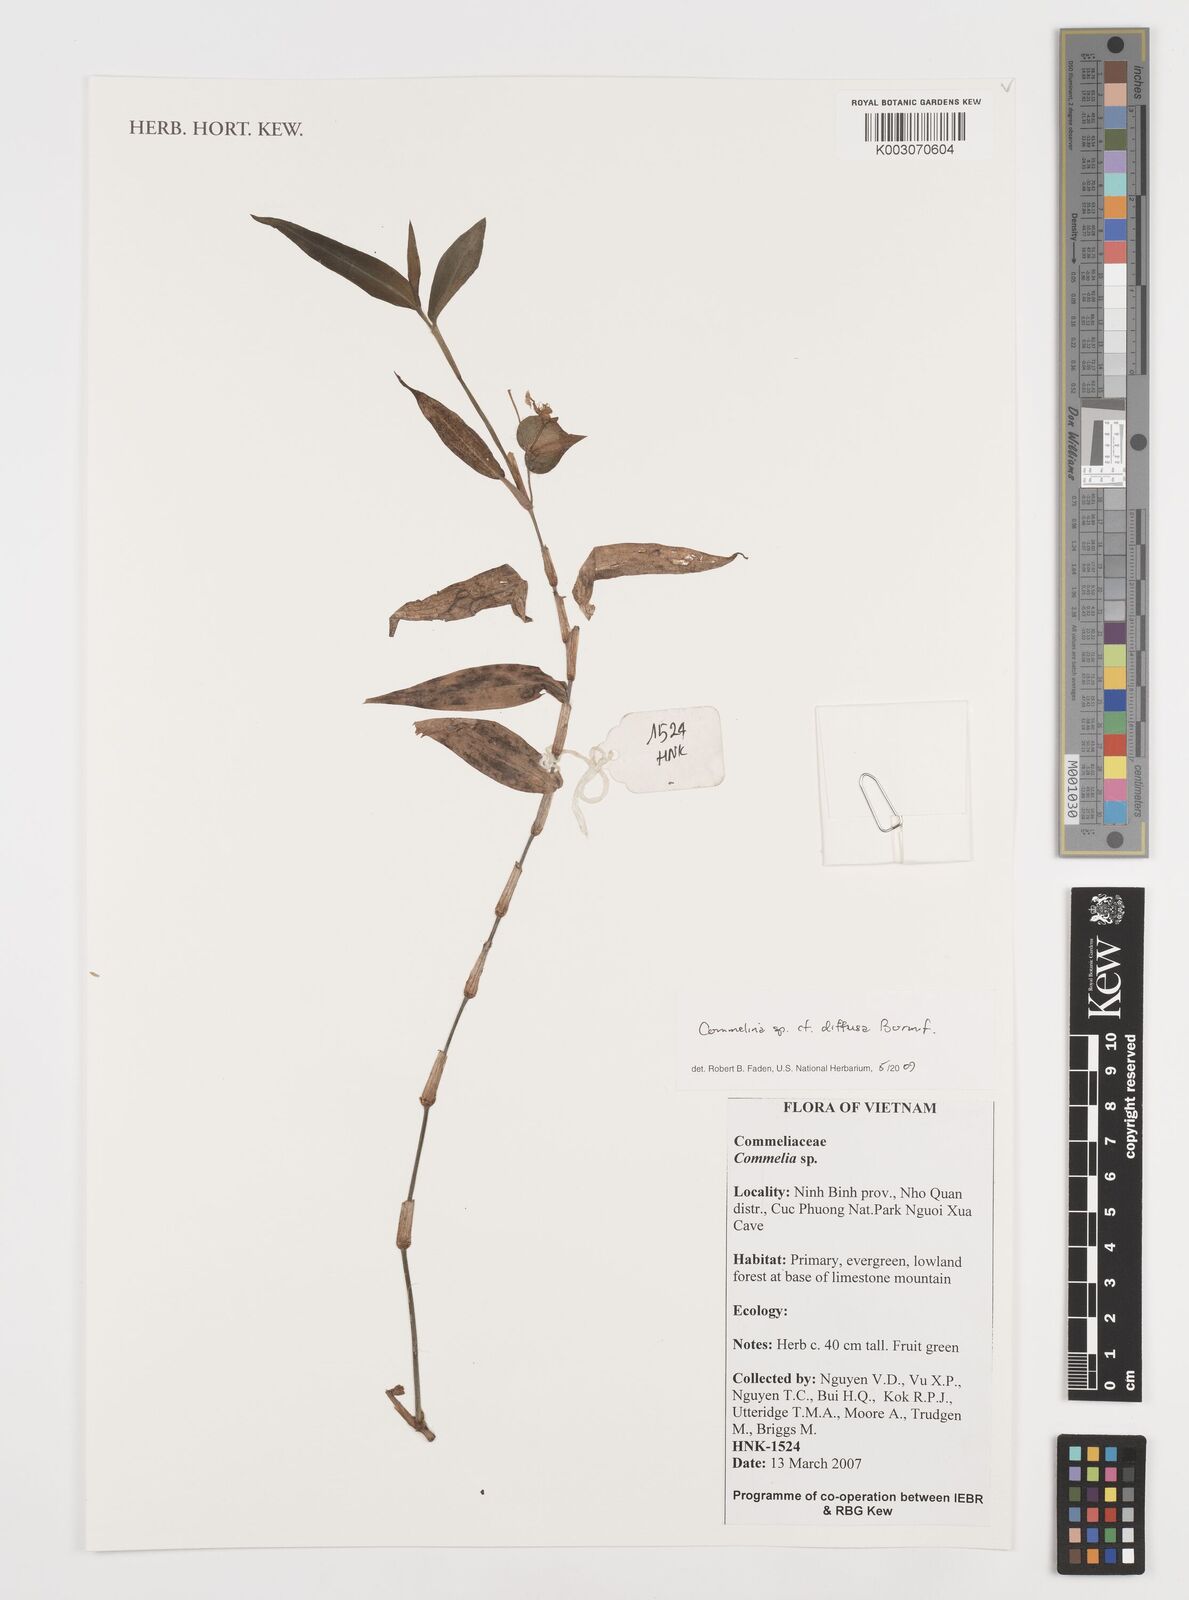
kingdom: Plantae
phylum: Tracheophyta
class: Liliopsida
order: Commelinales
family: Commelinaceae
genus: Commelina
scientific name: Commelina clavata
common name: Willow leaved dayflower
